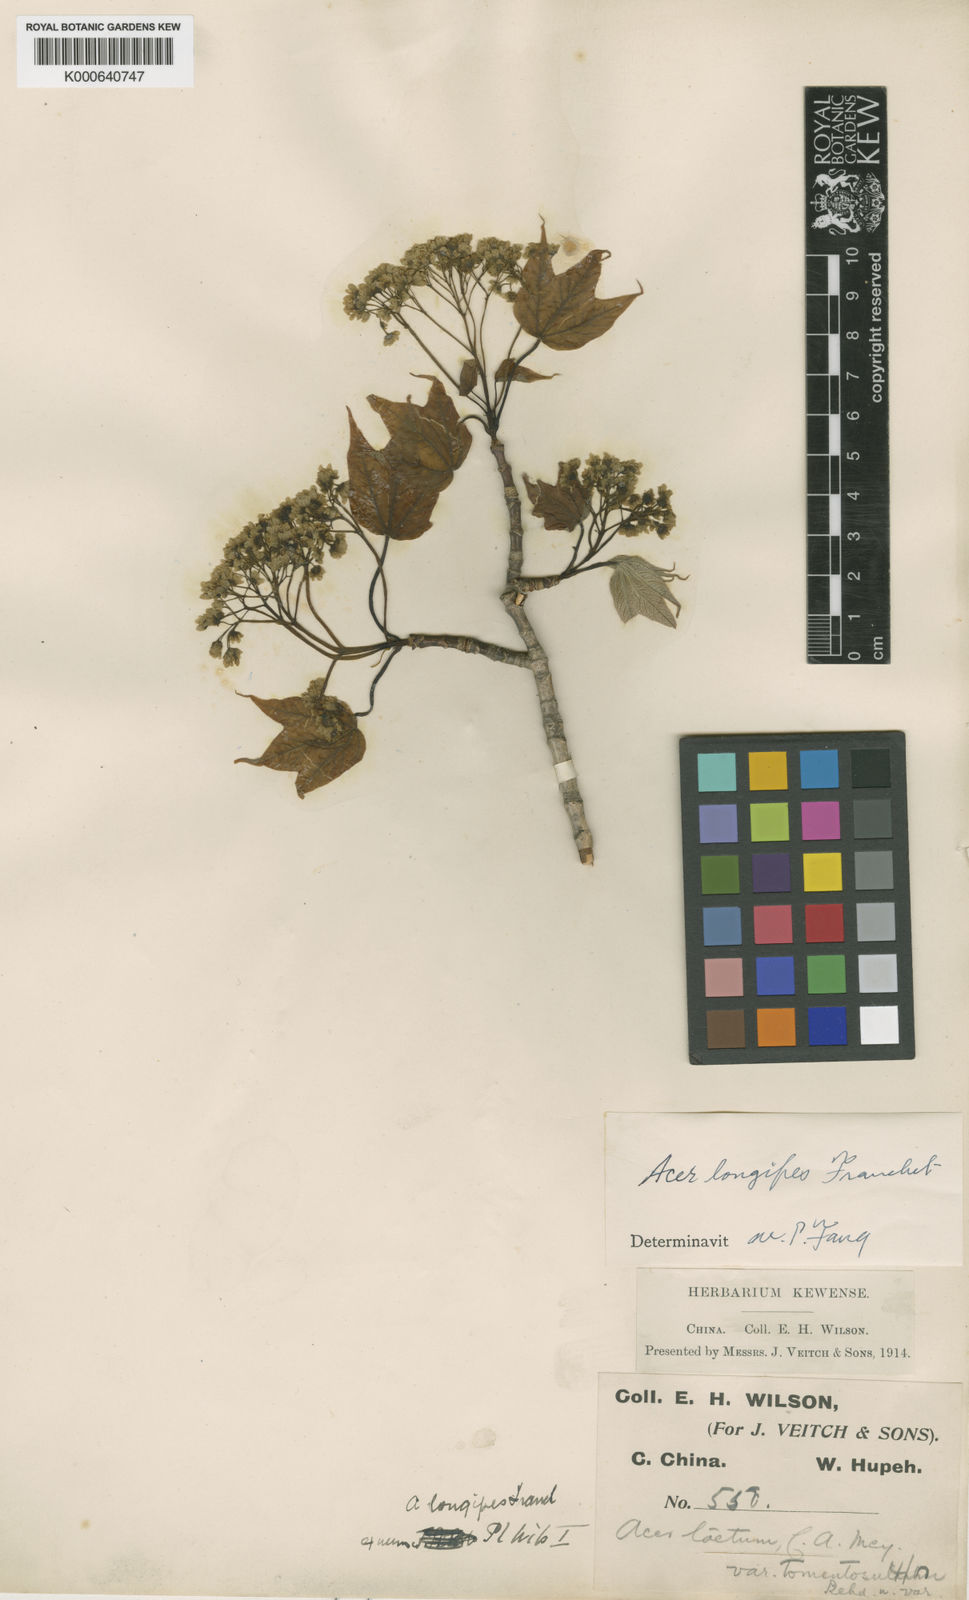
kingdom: Plantae
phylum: Tracheophyta
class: Magnoliopsida
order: Sapindales
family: Sapindaceae
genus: Acer
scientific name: Acer longipes
